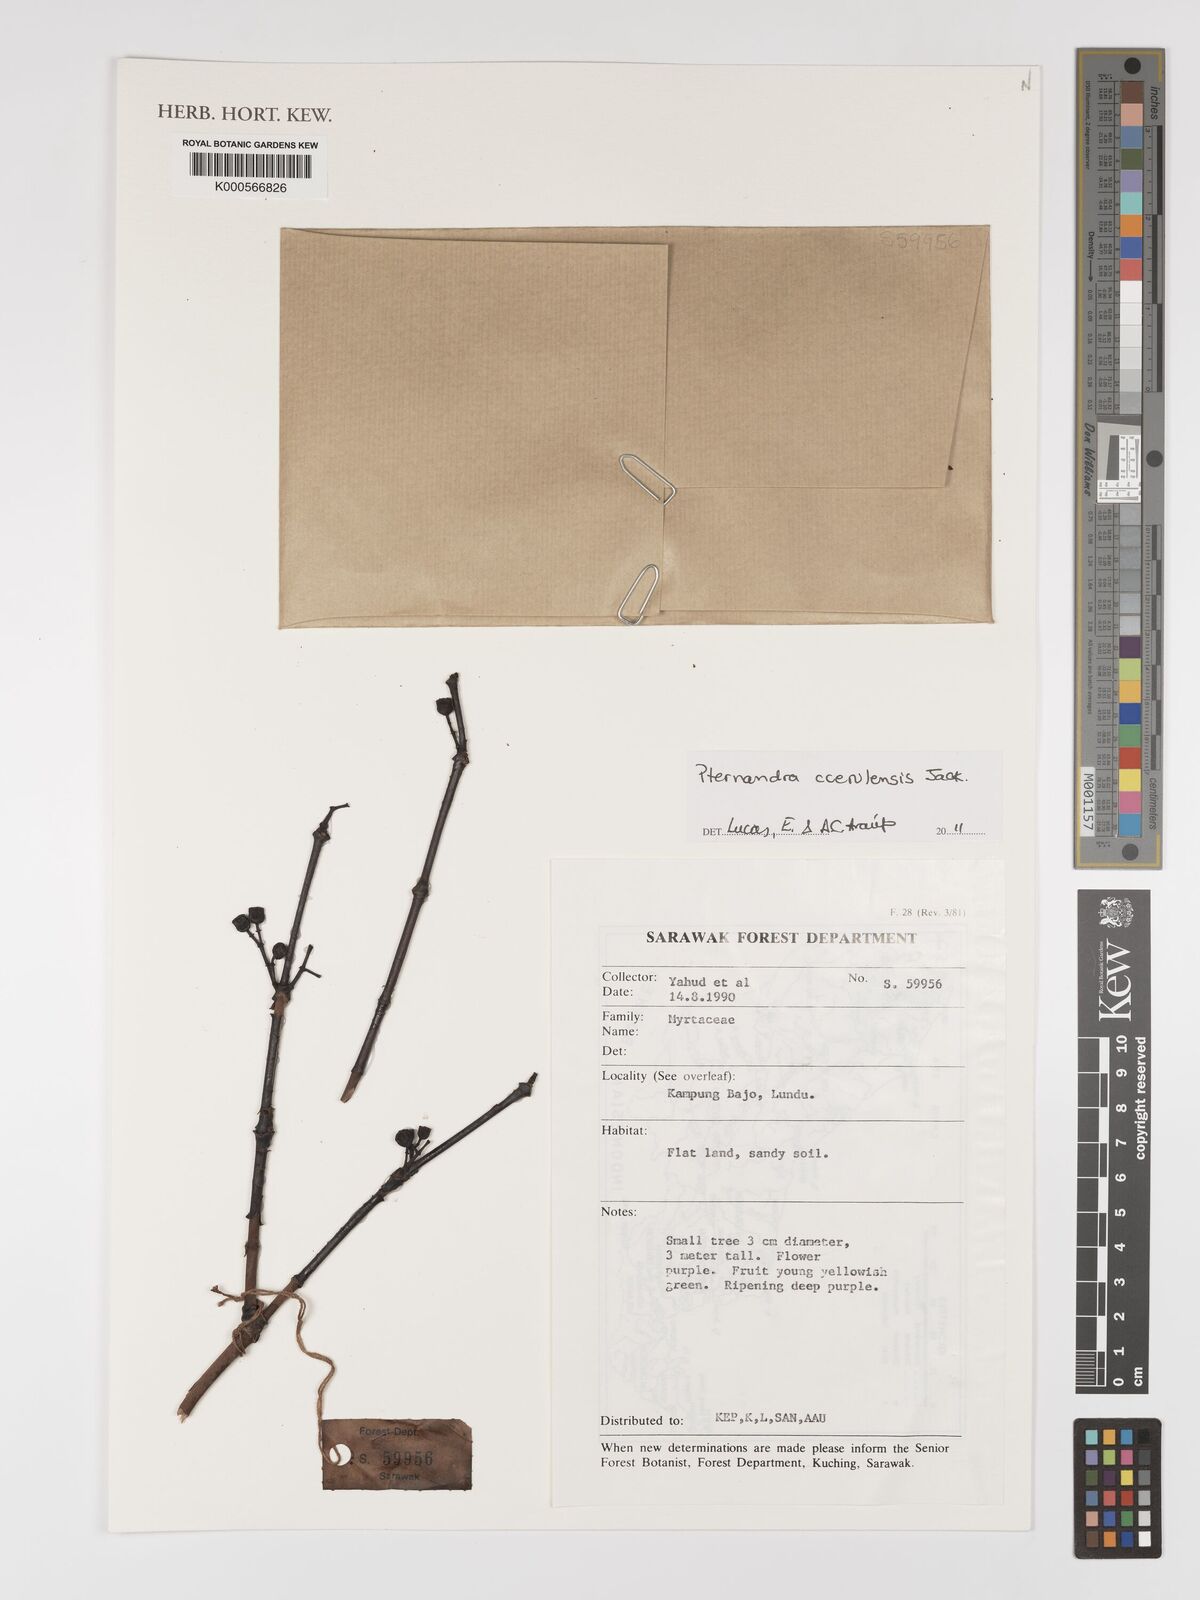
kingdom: Plantae
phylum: Tracheophyta
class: Magnoliopsida
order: Myrtales
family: Melastomataceae
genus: Pternandra
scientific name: Pternandra
